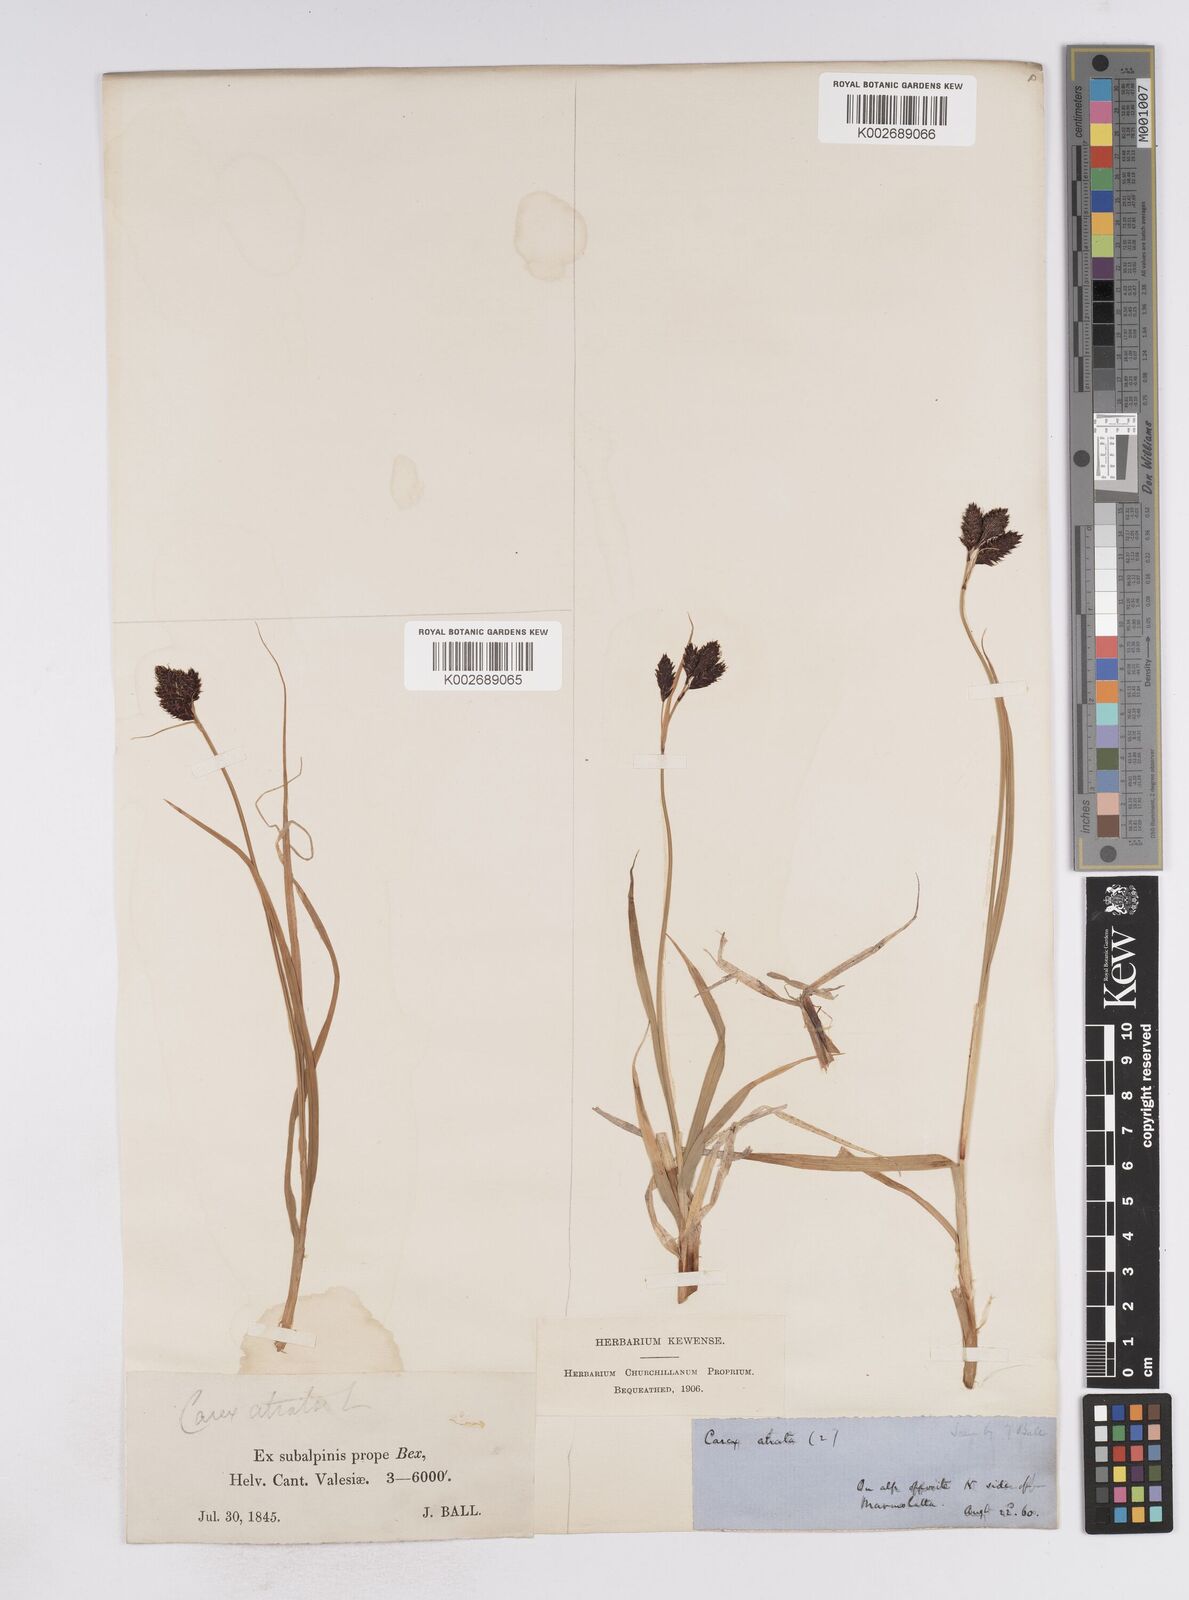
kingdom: Plantae
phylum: Tracheophyta
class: Liliopsida
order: Poales
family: Cyperaceae
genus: Carex
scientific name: Carex atrata
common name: Black alpine sedge
